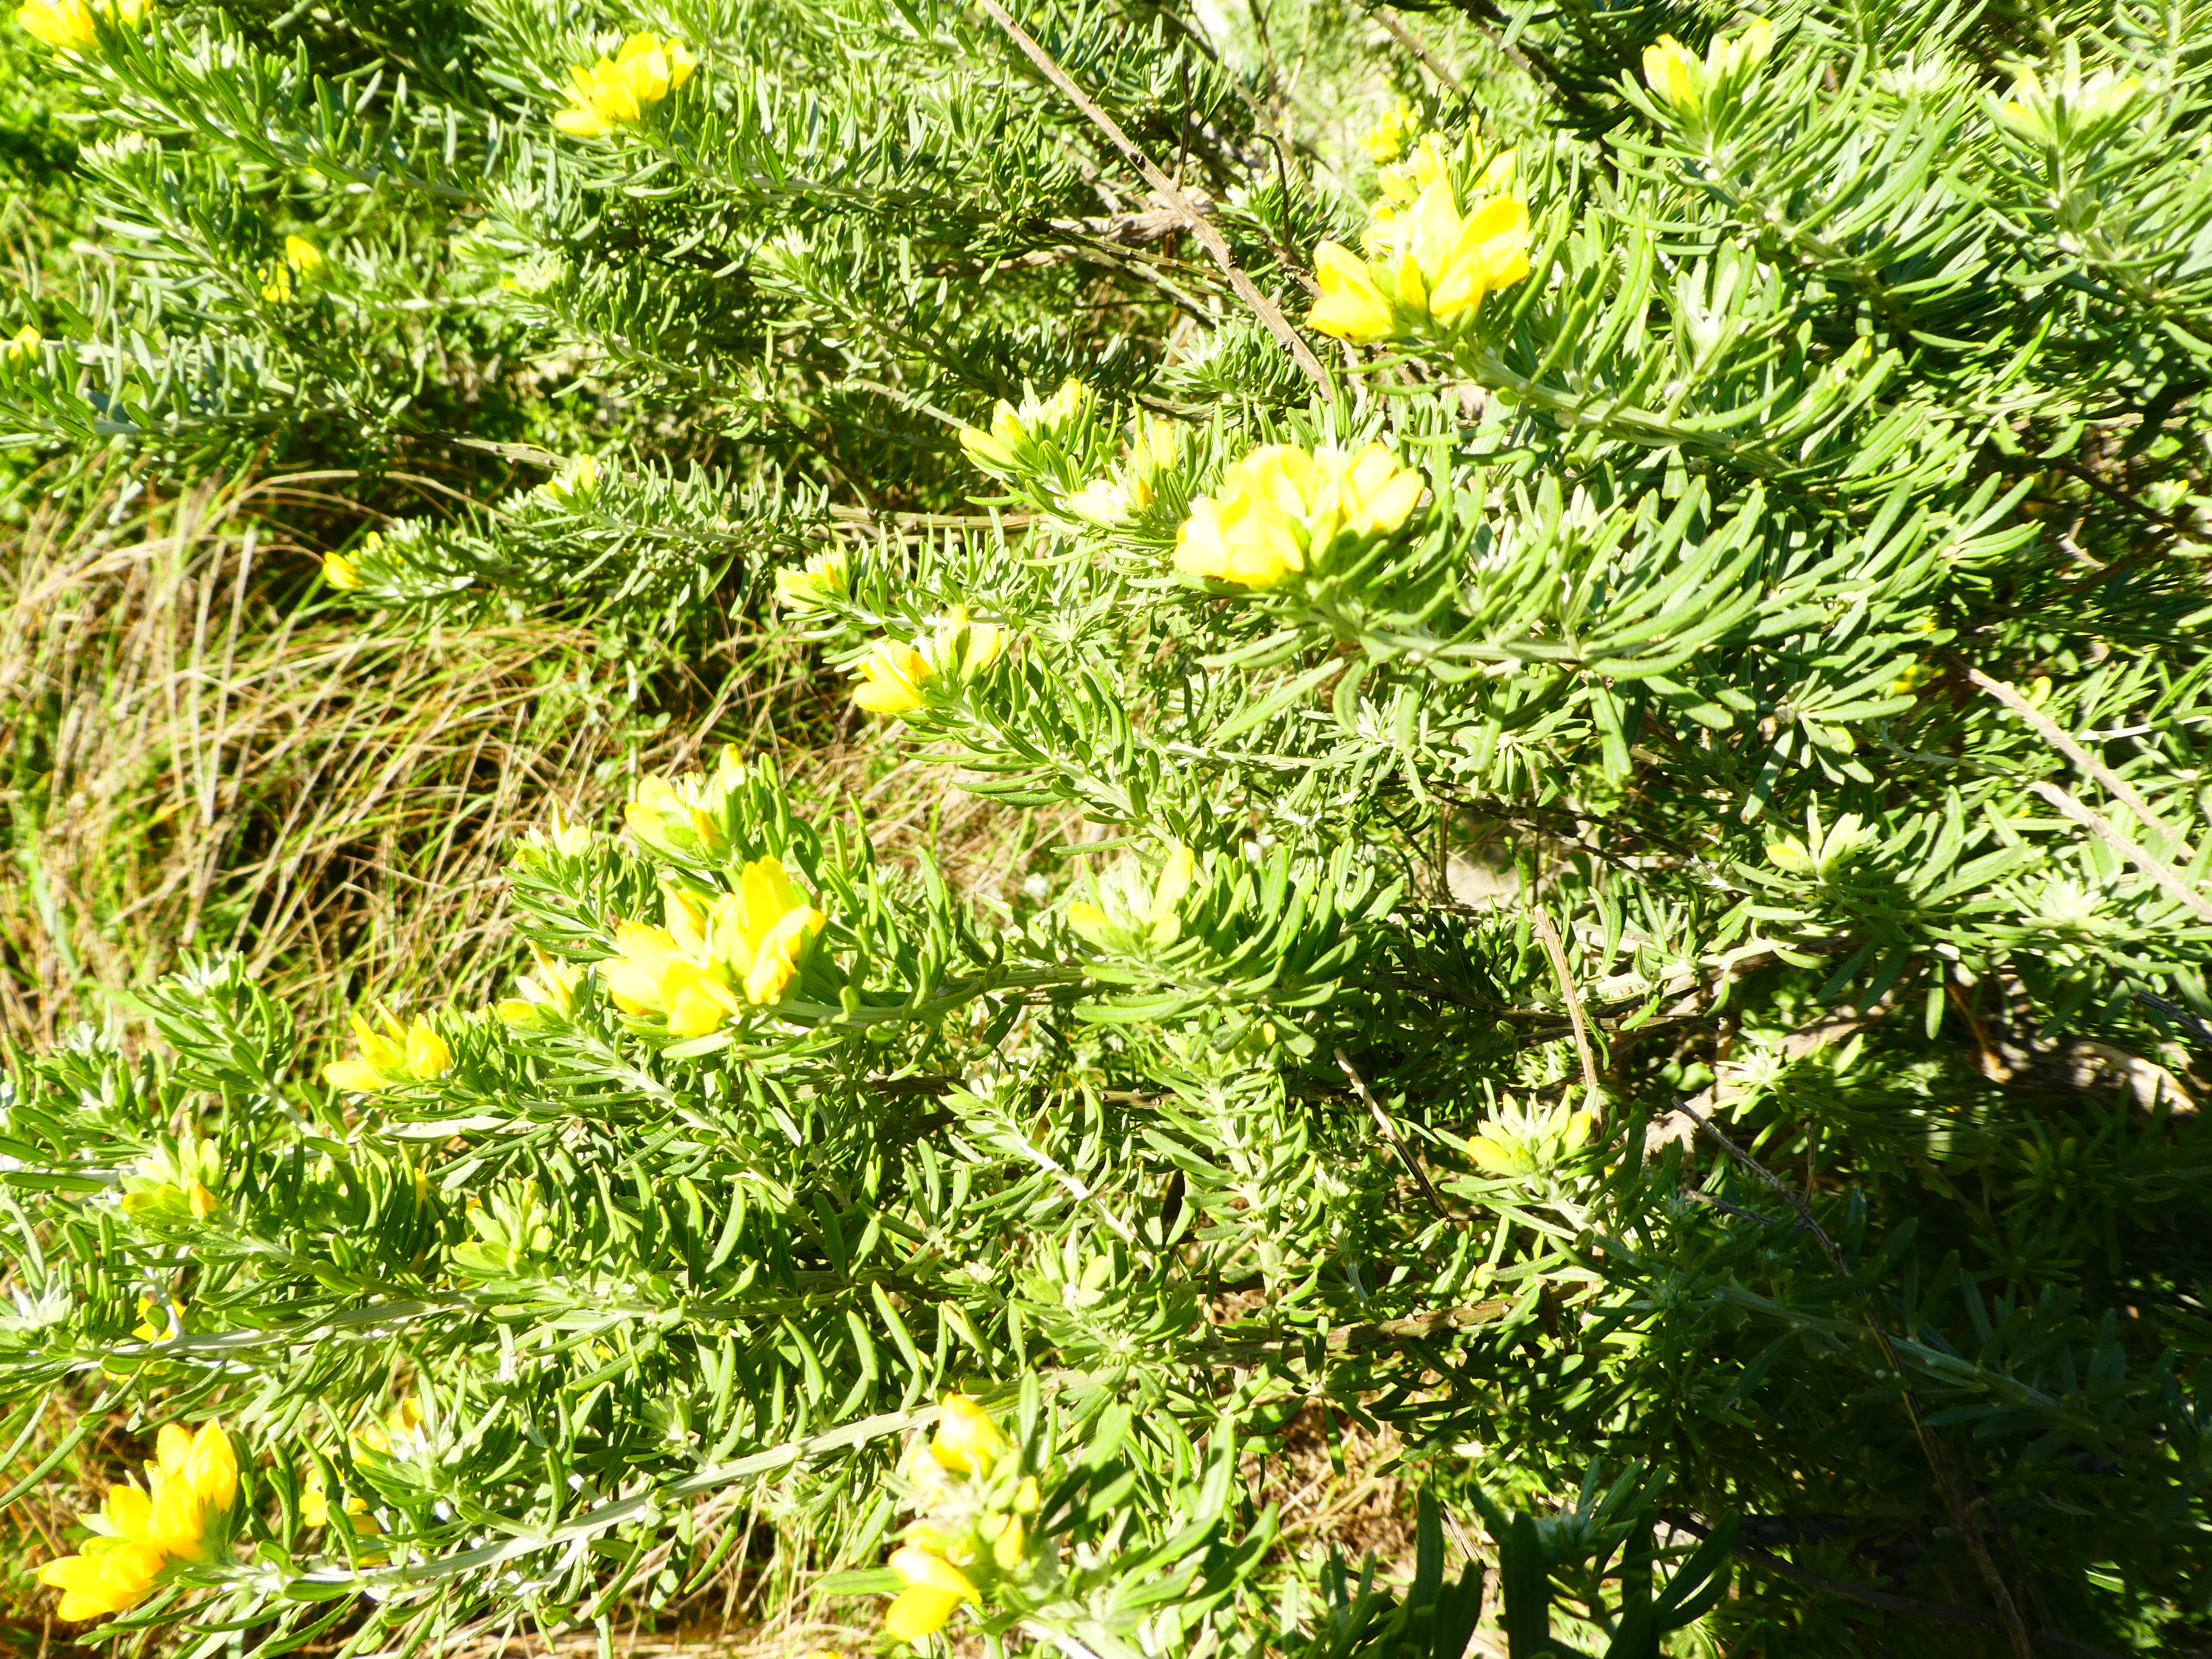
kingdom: Plantae
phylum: Tracheophyta
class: Magnoliopsida
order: Fabales
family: Fabaceae
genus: Genista
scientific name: Genista linifolia
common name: Mediterranean broom
